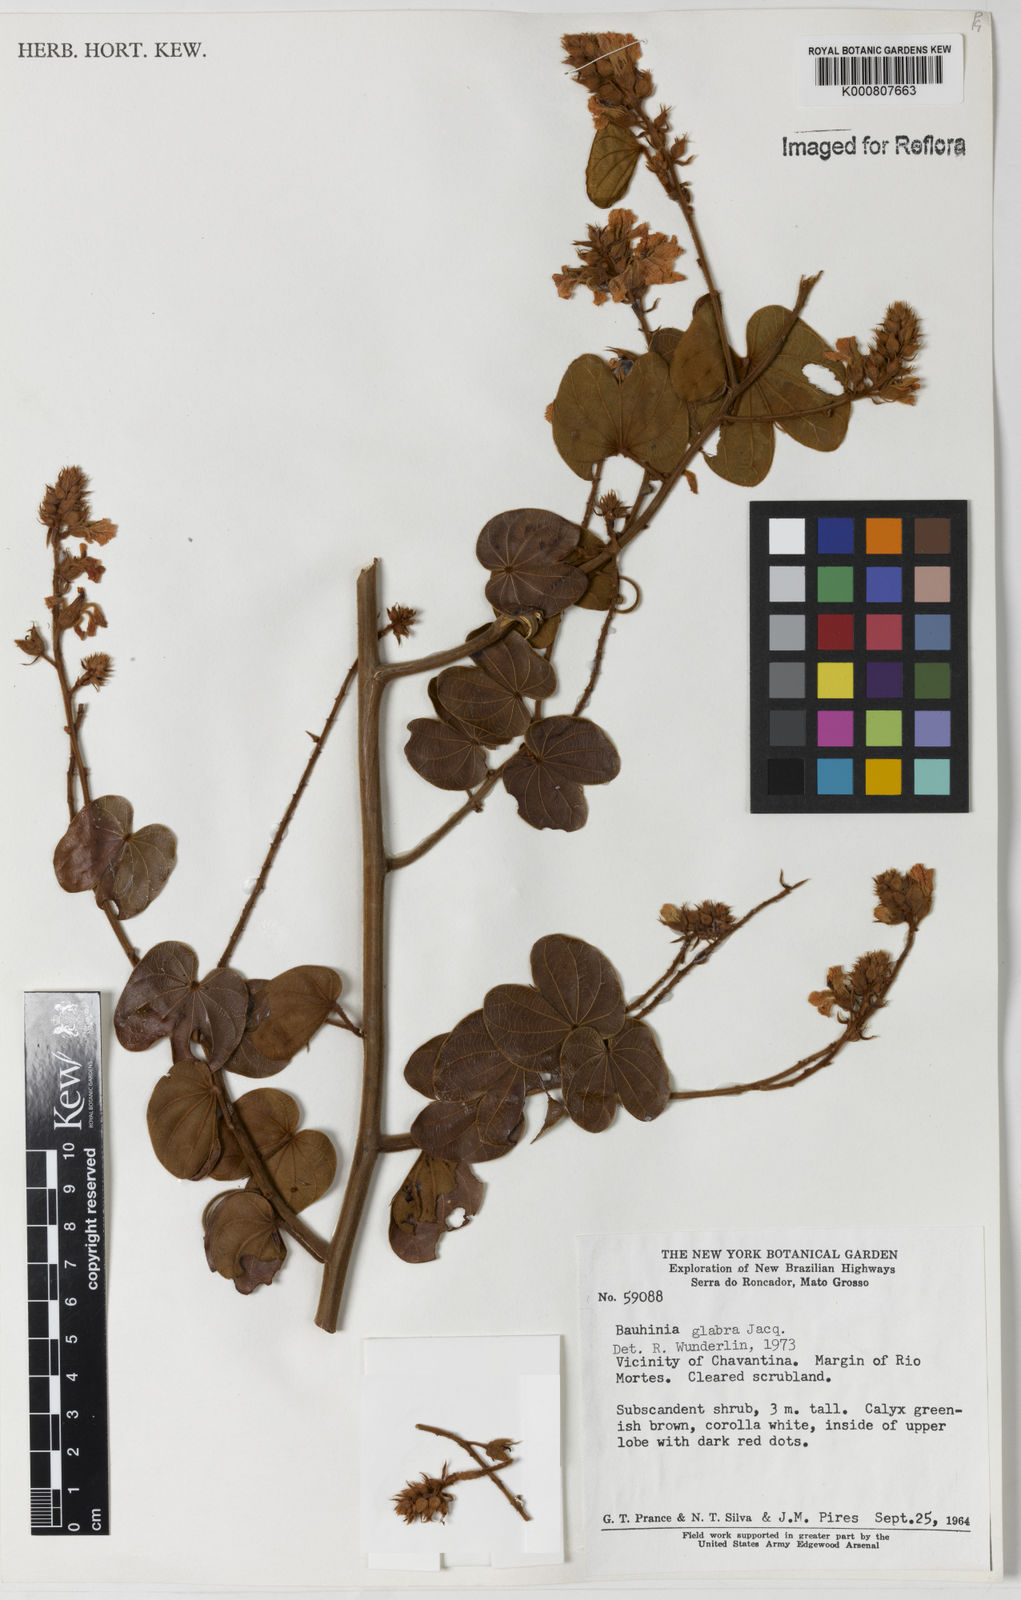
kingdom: Plantae
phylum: Tracheophyta
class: Magnoliopsida
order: Fabales
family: Fabaceae
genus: Schnella
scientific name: Schnella glabra
